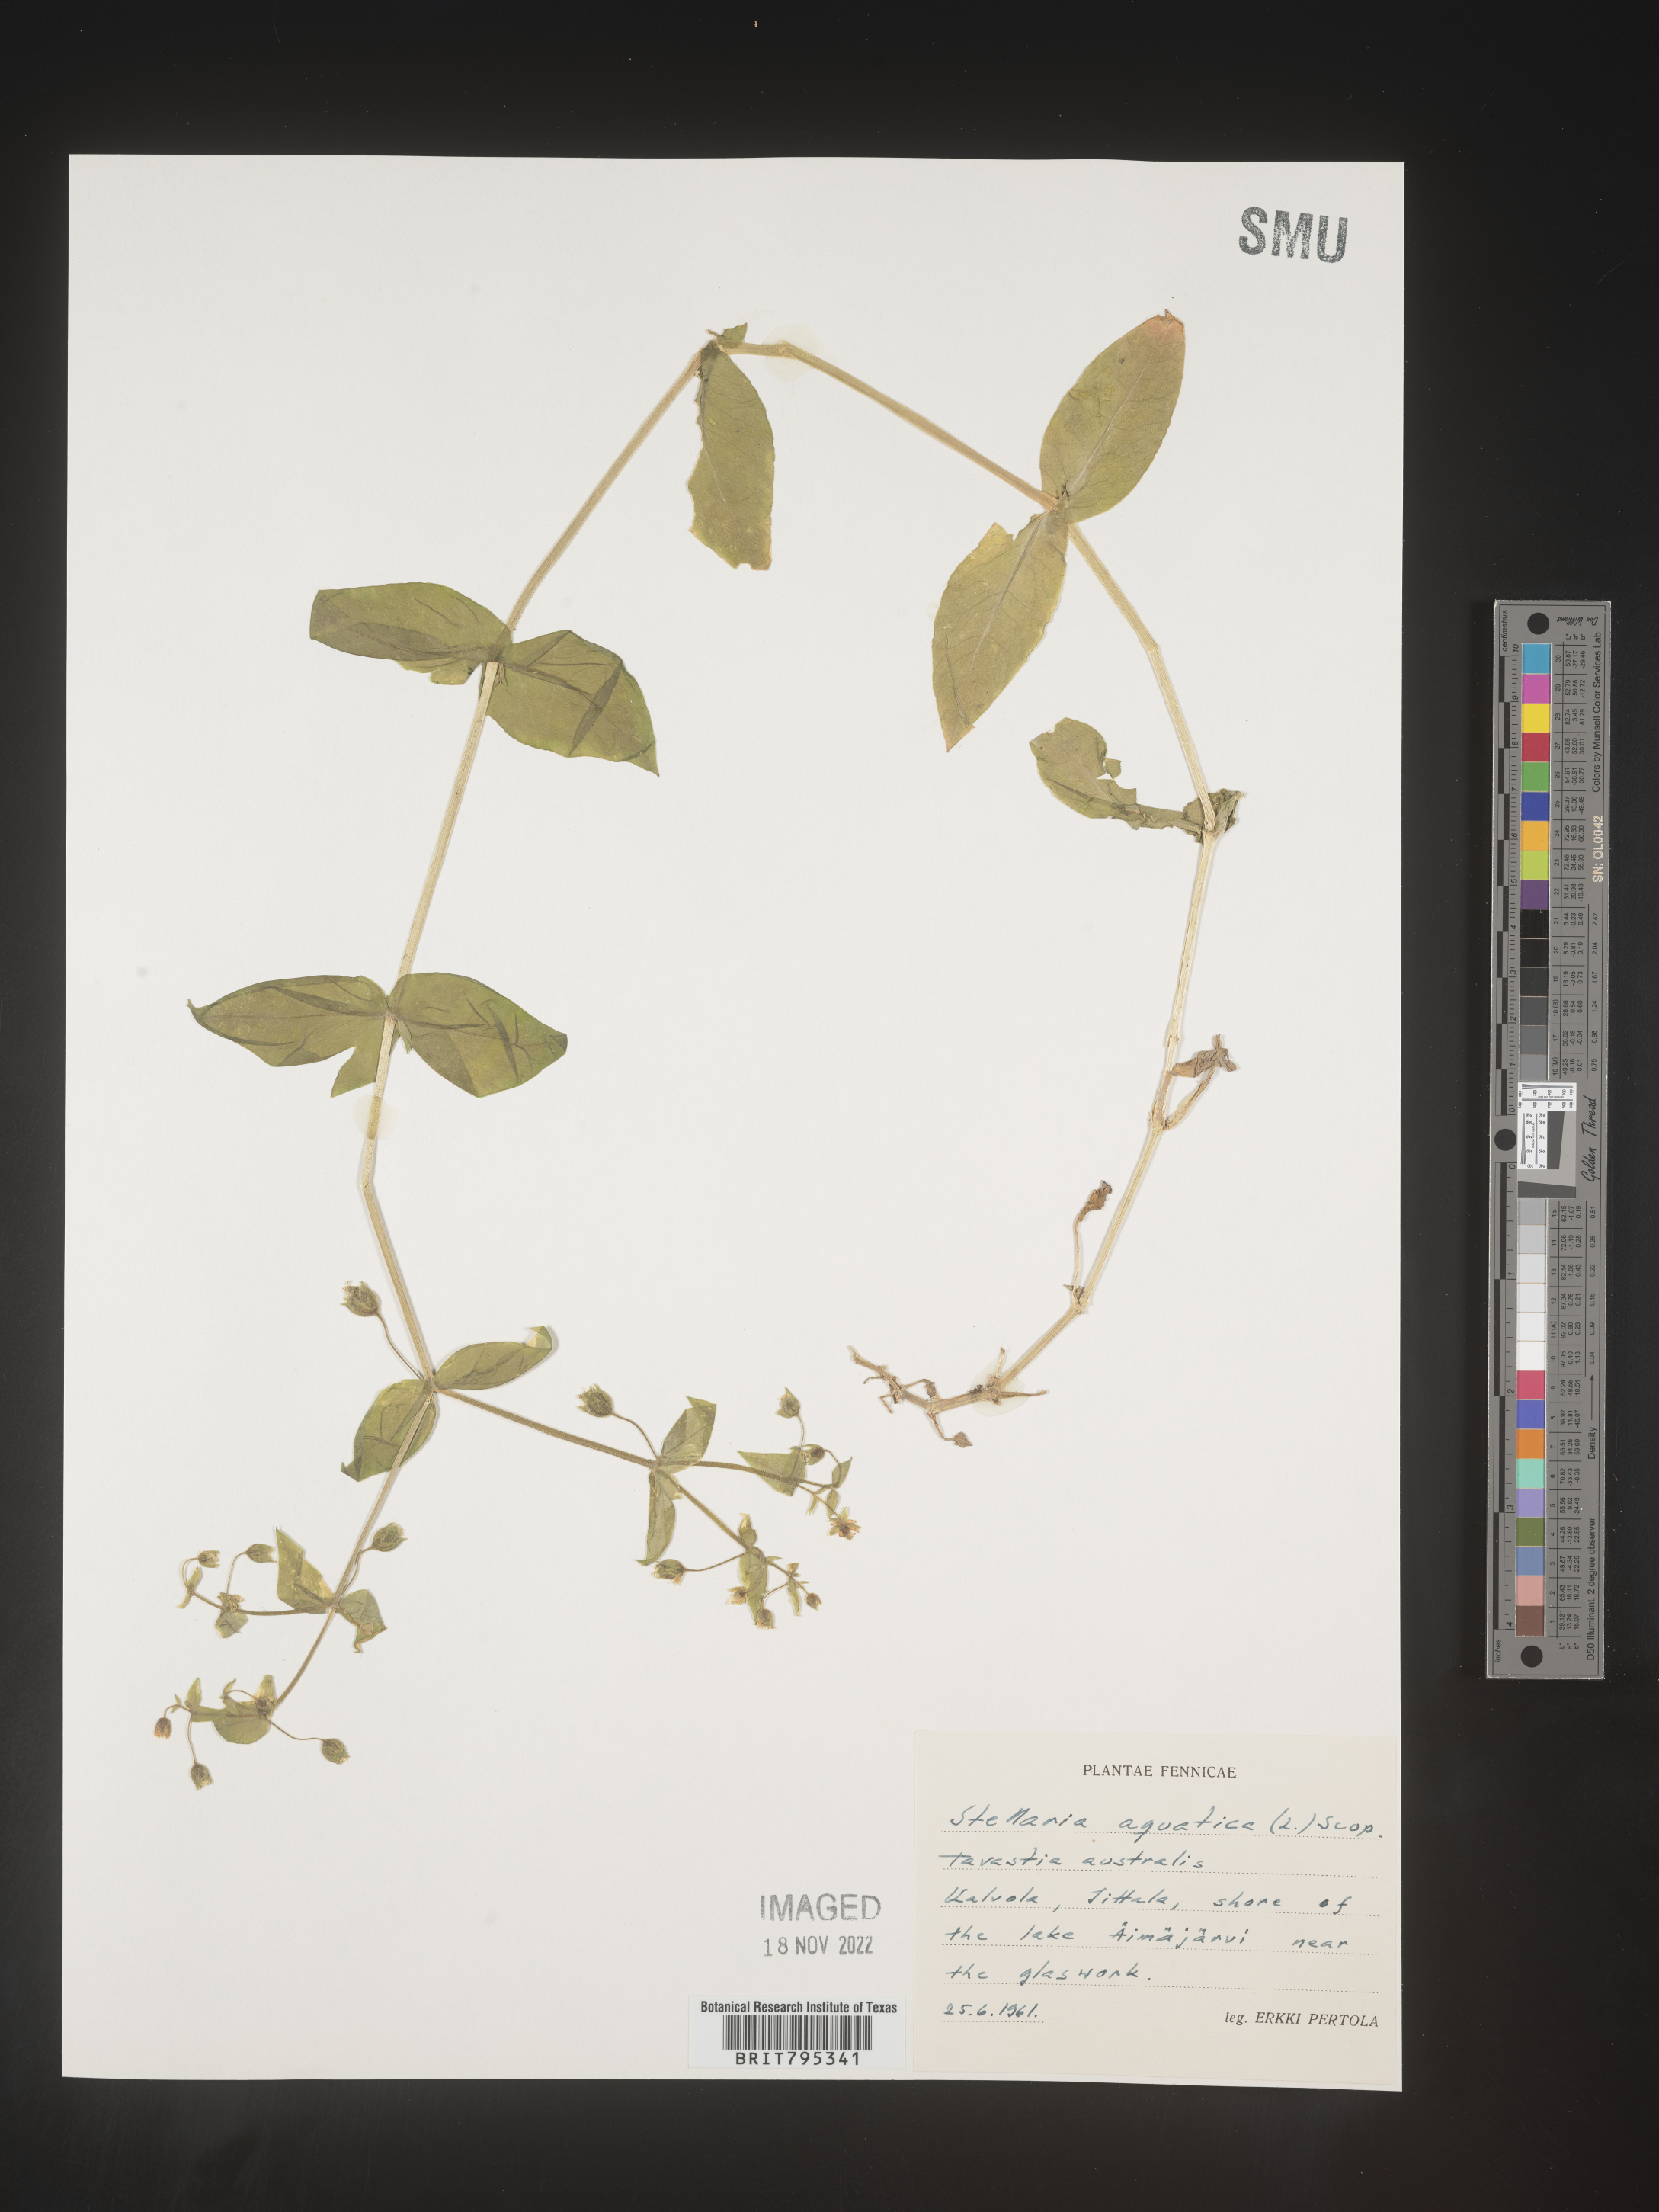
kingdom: Plantae
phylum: Tracheophyta
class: Magnoliopsida
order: Caryophyllales
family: Caryophyllaceae
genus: Stellaria
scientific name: Stellaria
